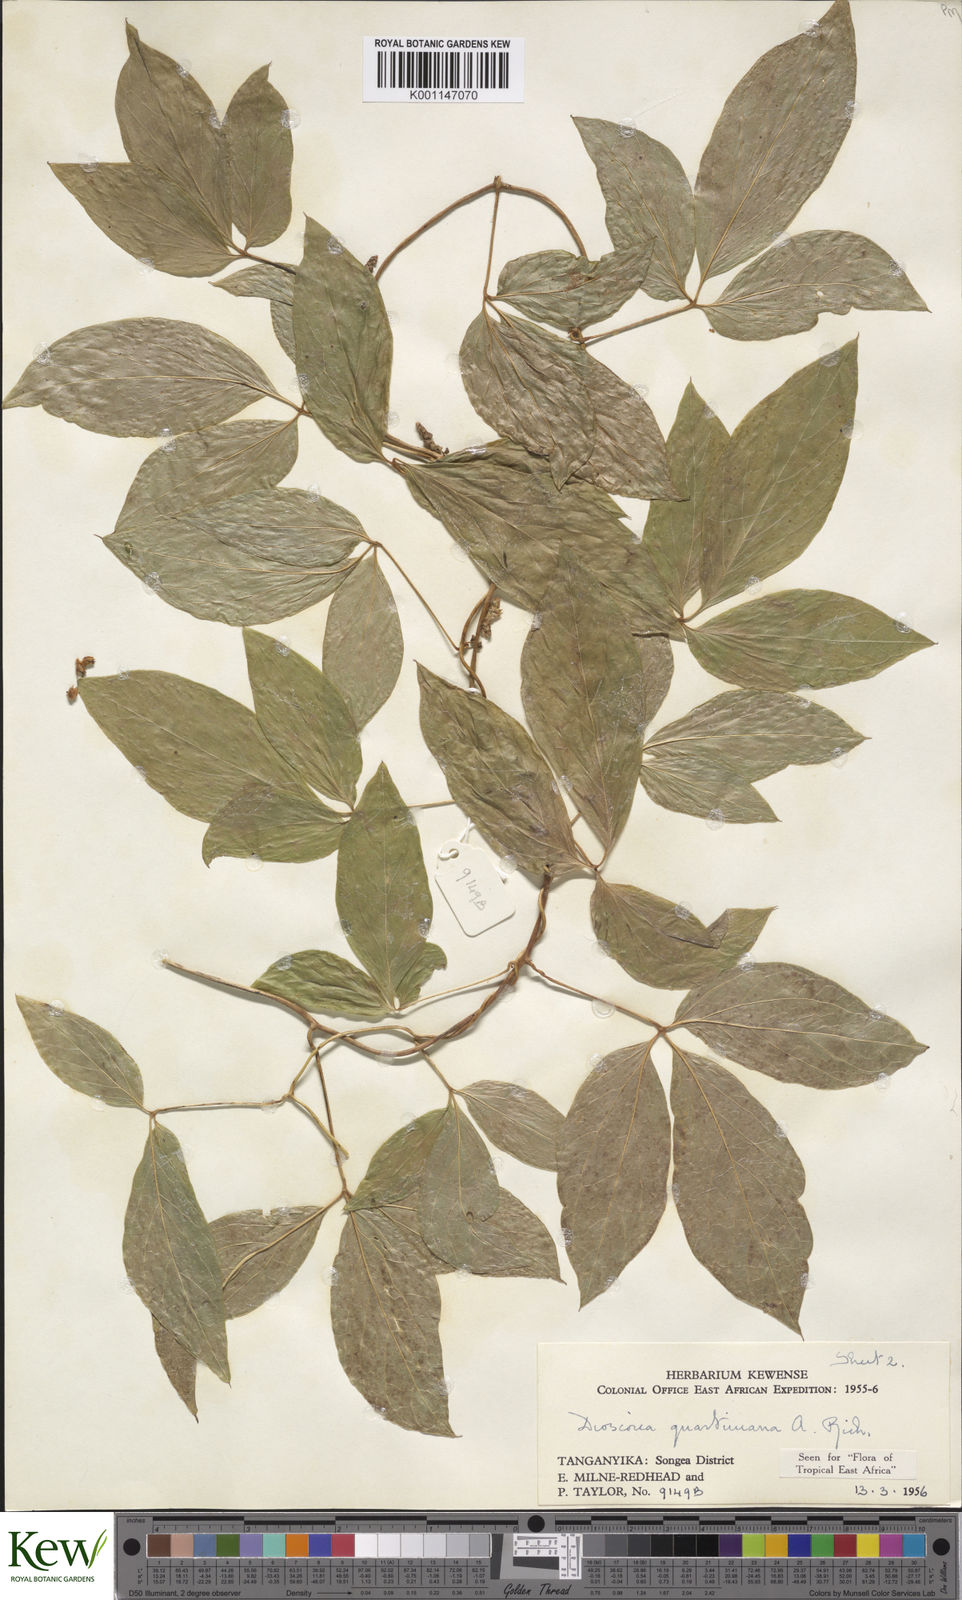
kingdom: Plantae
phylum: Tracheophyta
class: Liliopsida
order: Dioscoreales
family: Dioscoreaceae
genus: Dioscorea
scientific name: Dioscorea quartiniana
